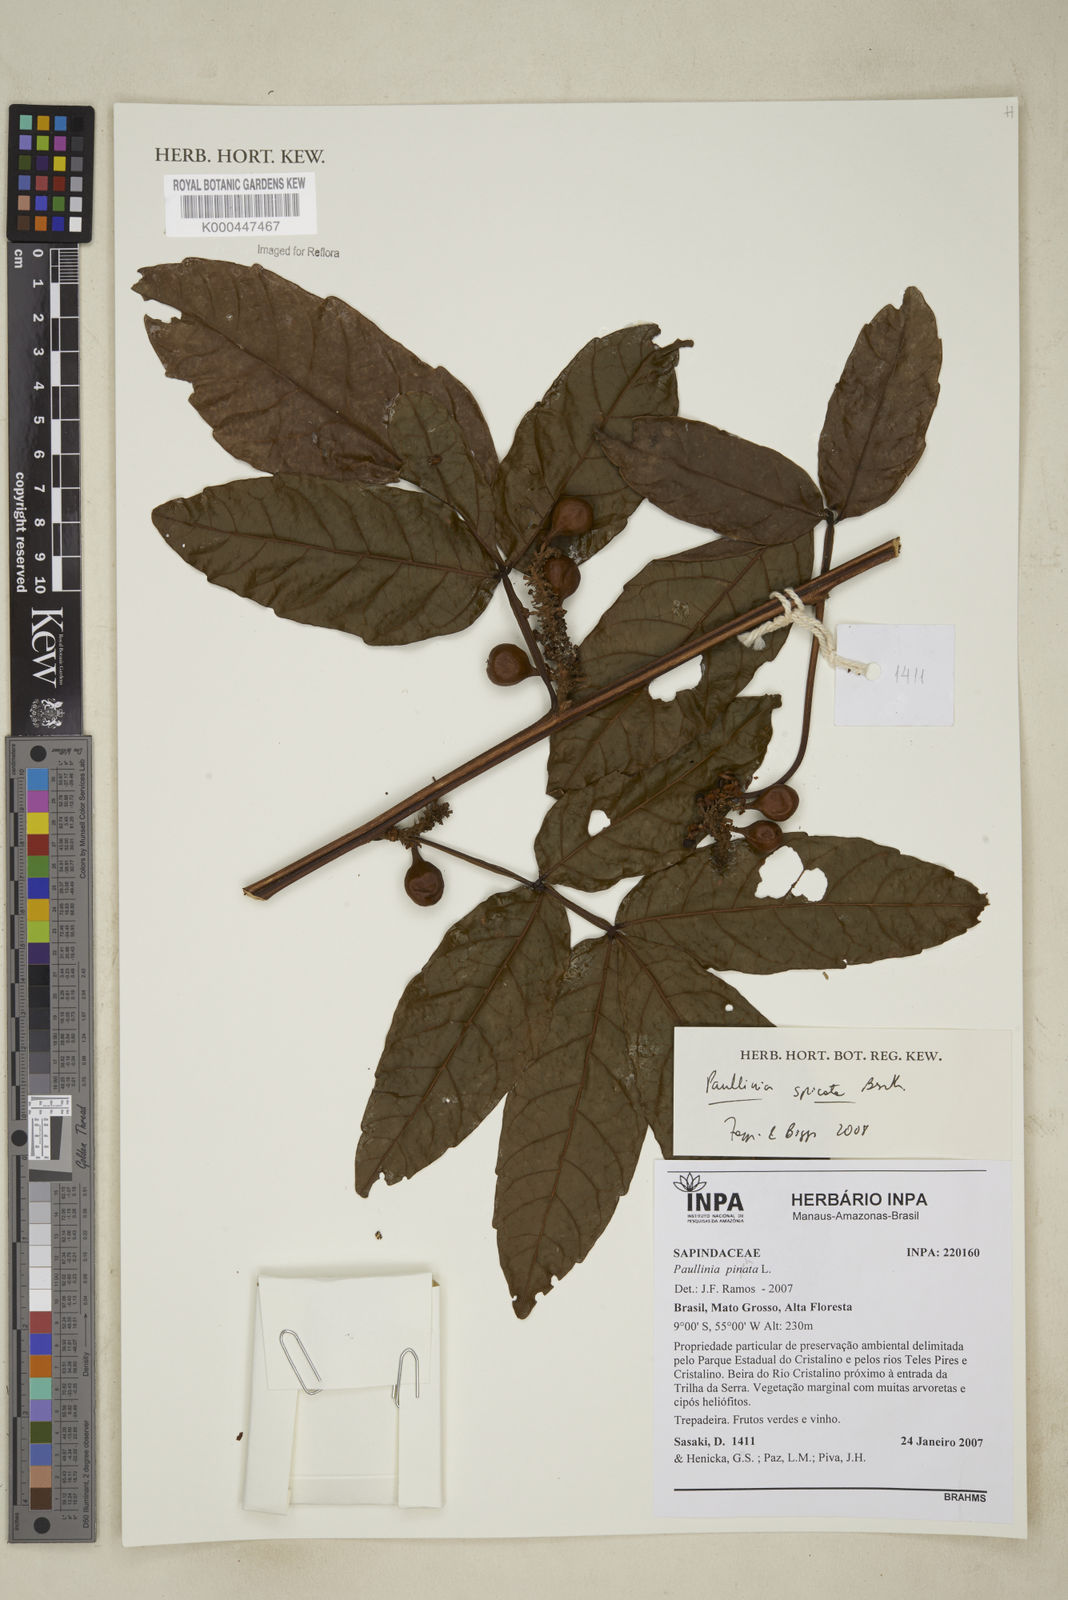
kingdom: Plantae
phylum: Tracheophyta
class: Magnoliopsida
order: Sapindales
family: Sapindaceae
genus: Paullinia
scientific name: Paullinia spicata
